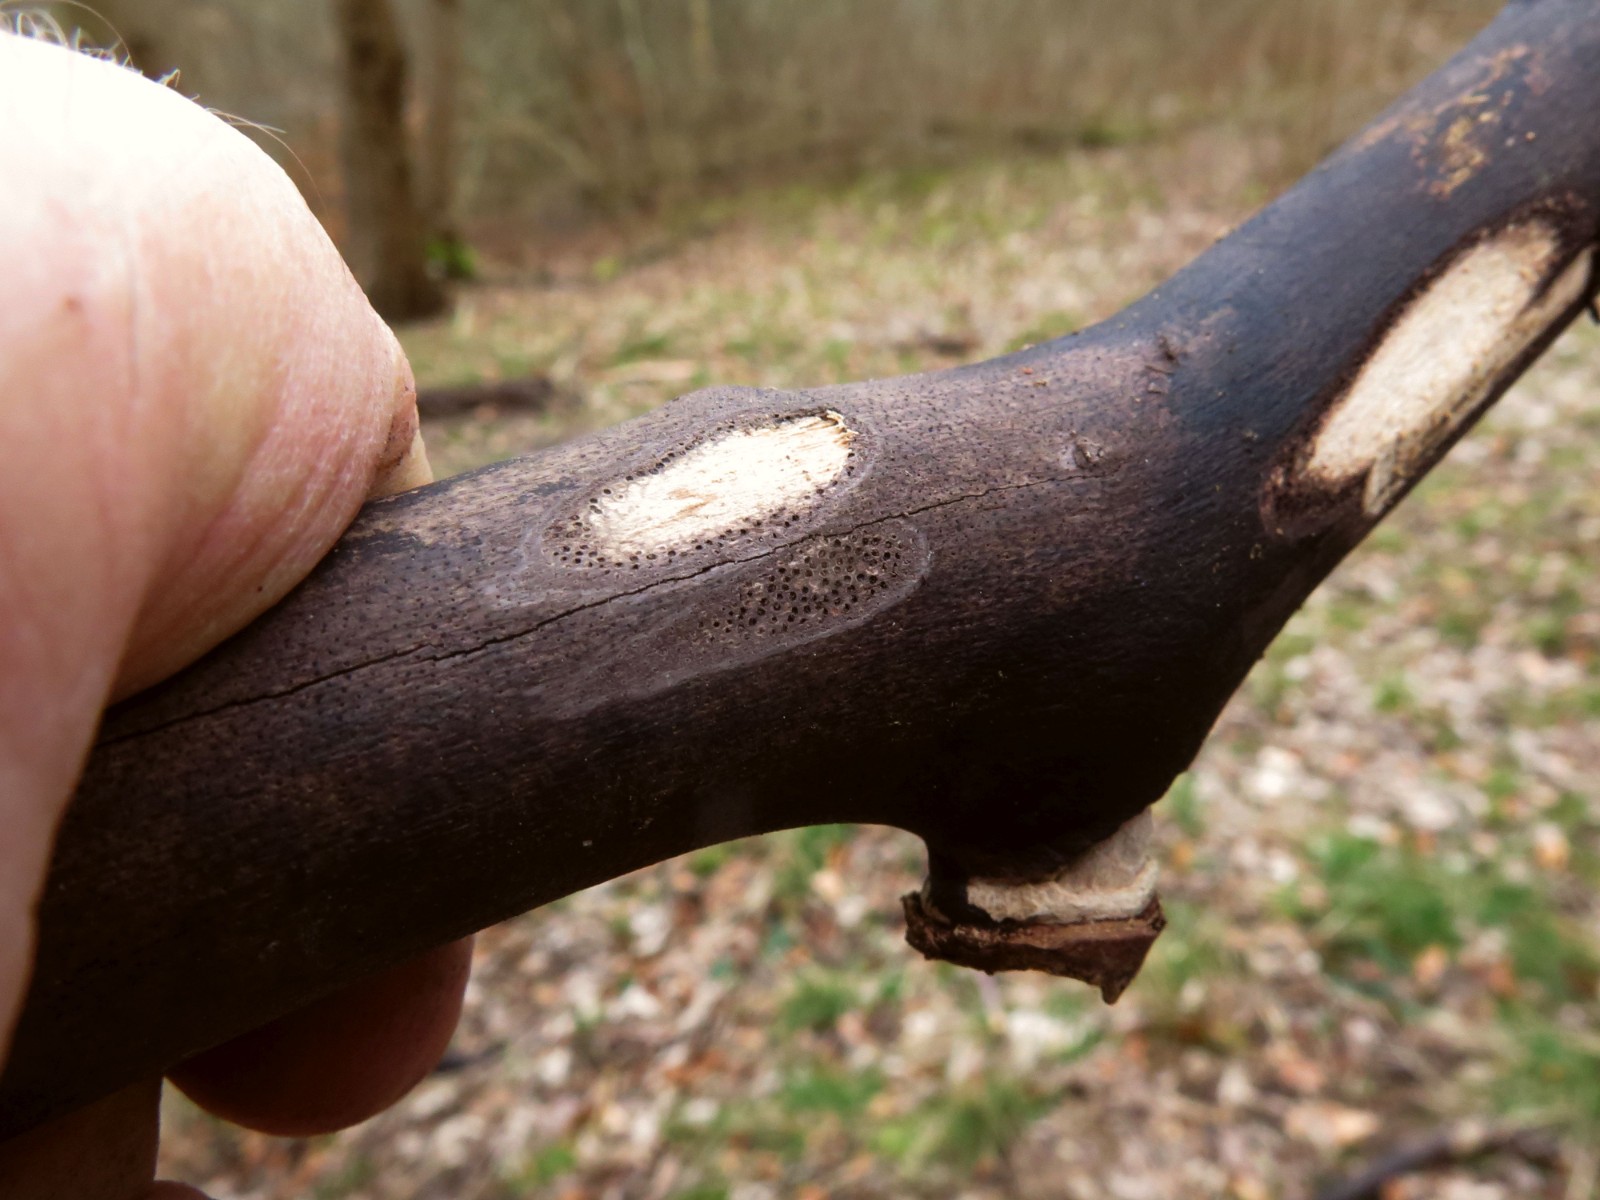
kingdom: Fungi
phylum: Ascomycota
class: Sordariomycetes
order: Xylariales
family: Diatrypaceae
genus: Eutypa
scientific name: Eutypa maura
